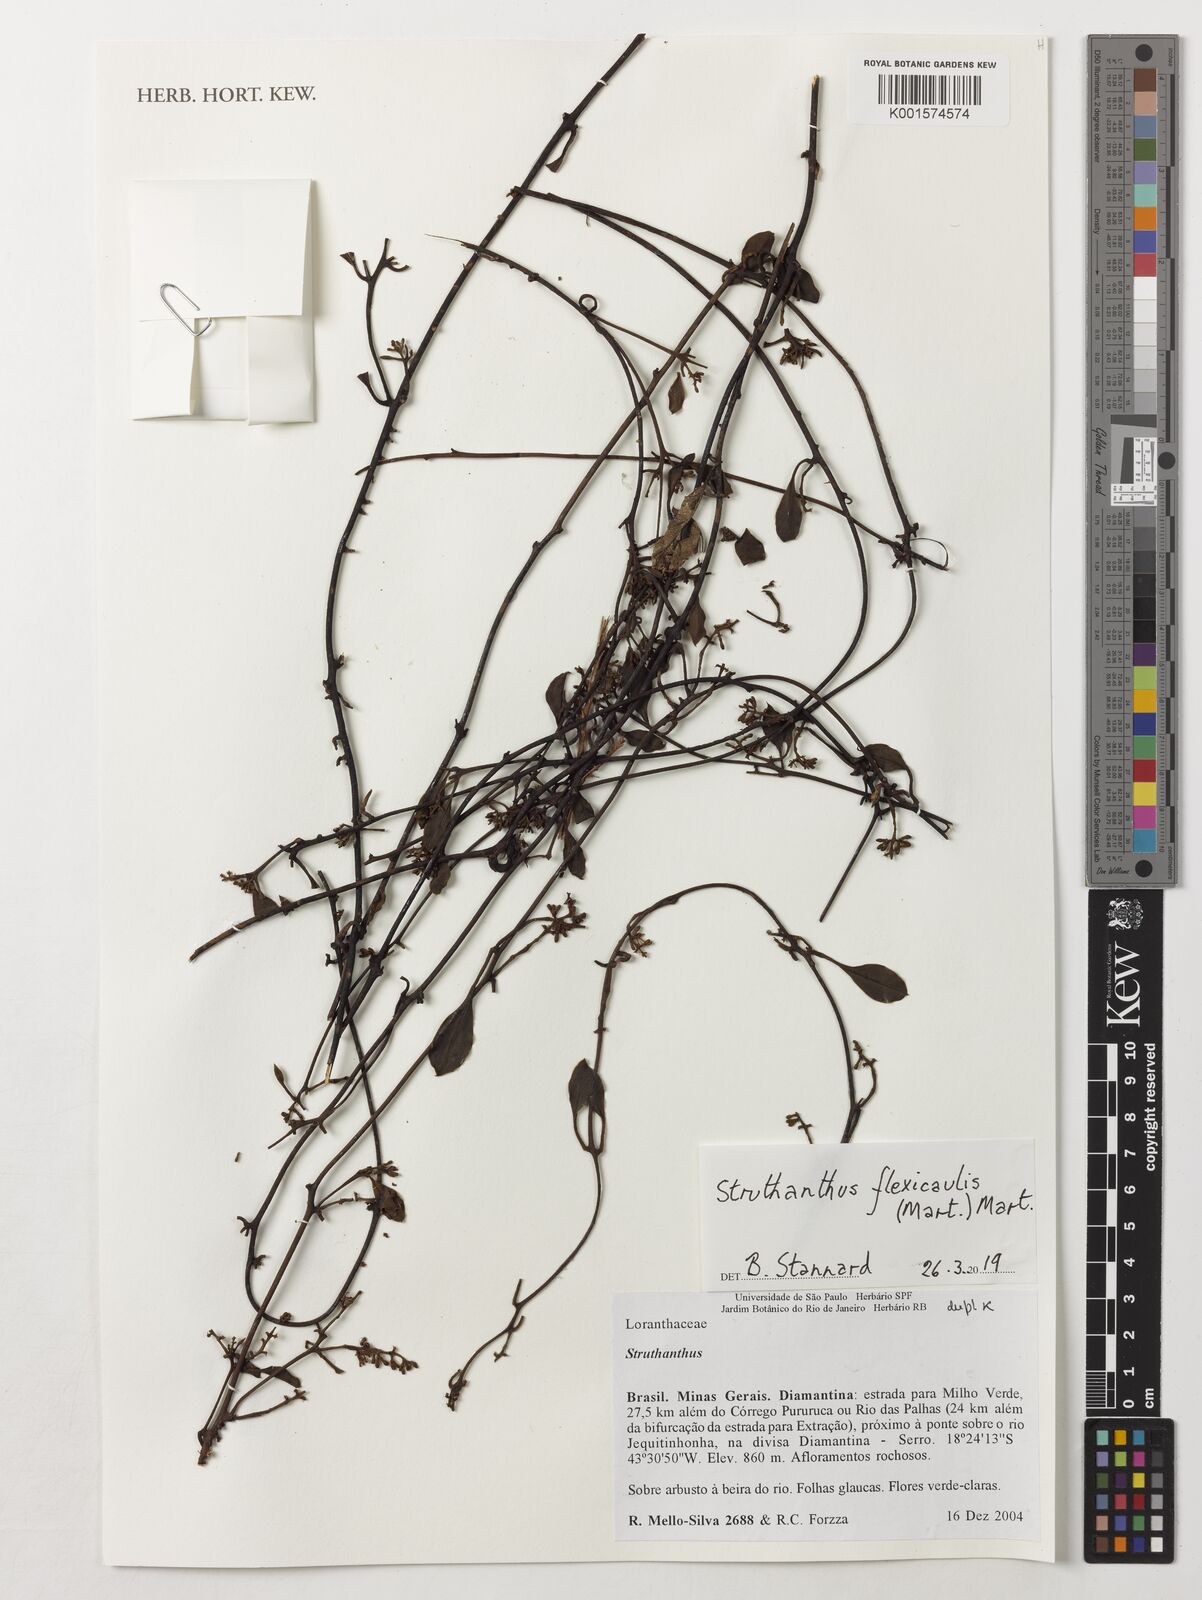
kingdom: Plantae
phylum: Tracheophyta
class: Magnoliopsida
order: Santalales
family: Loranthaceae
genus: Struthanthus
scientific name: Struthanthus flexicaulis
